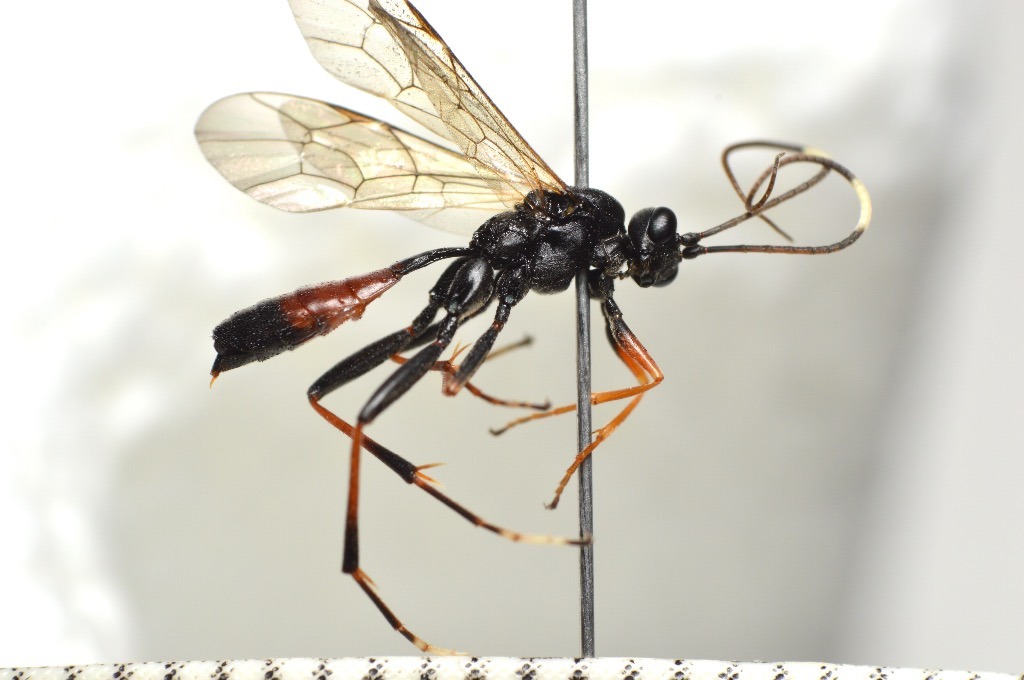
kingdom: Animalia
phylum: Arthropoda
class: Insecta
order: Hymenoptera
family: Ichneumonidae
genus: Euryproctus
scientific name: Euryproctus nemoralis
